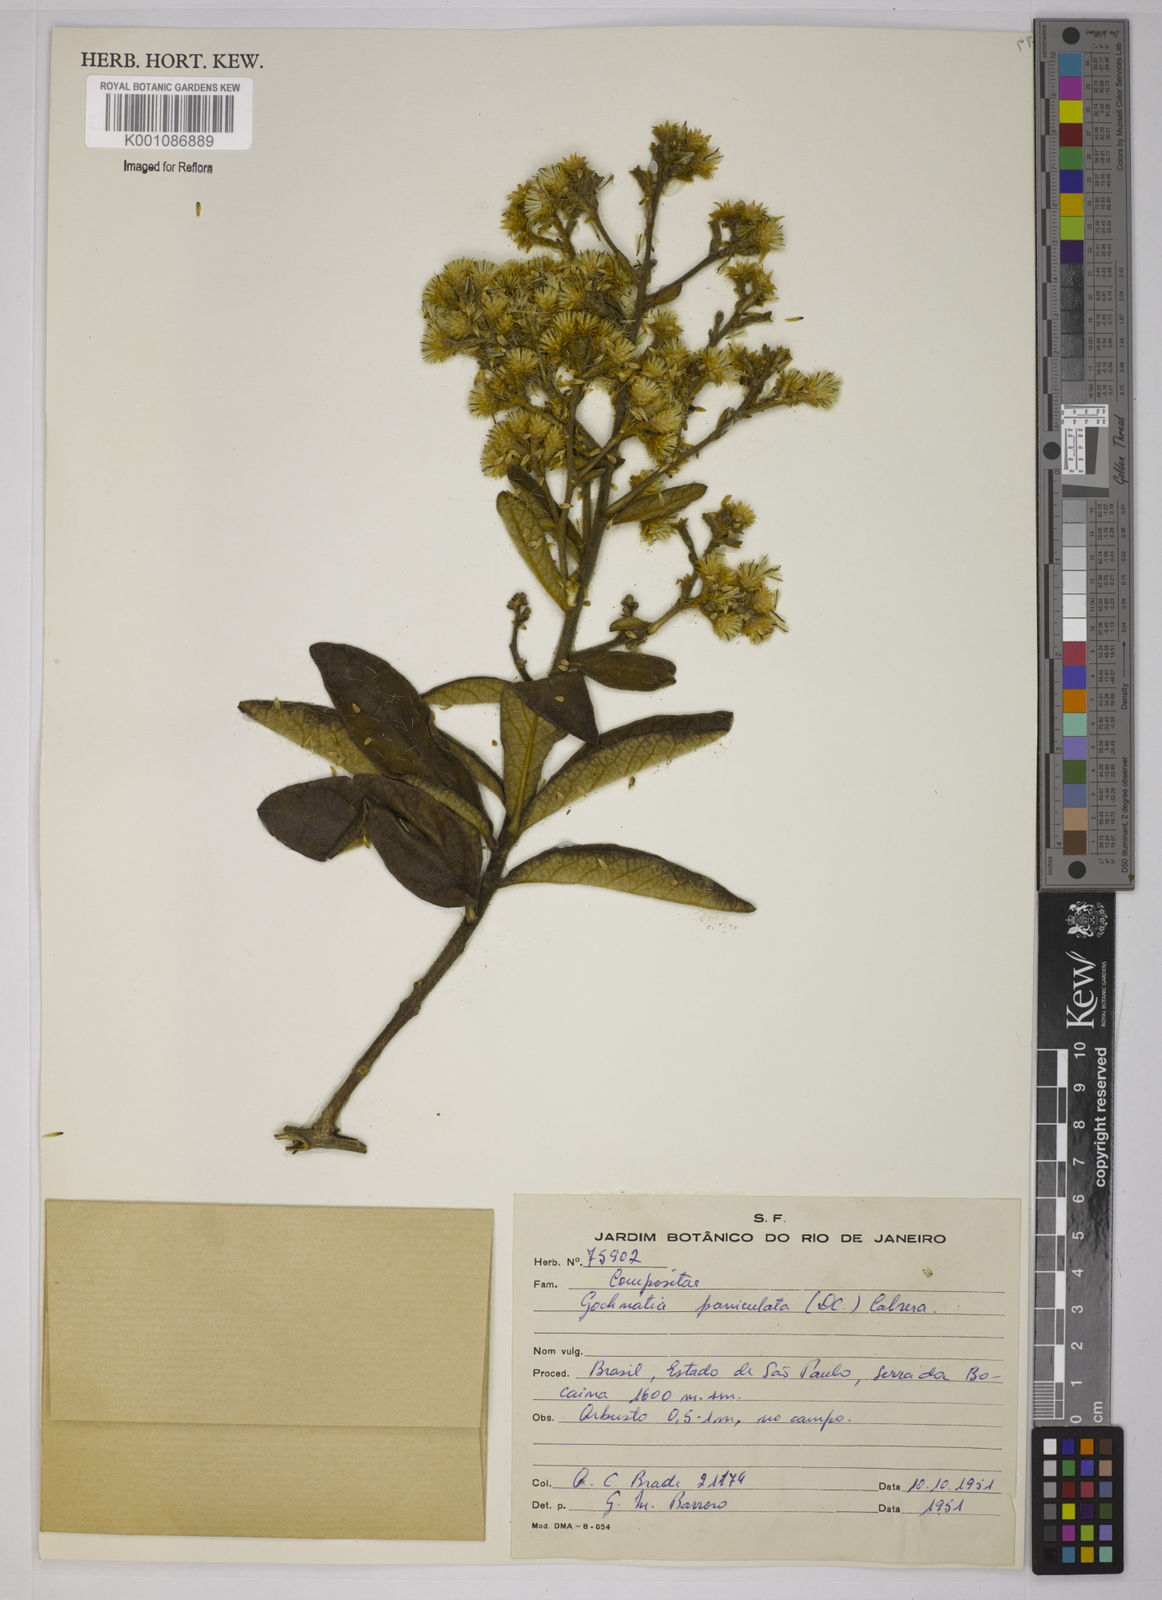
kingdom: Plantae
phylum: Tracheophyta
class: Magnoliopsida
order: Asterales
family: Asteraceae
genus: Moquiniastrum
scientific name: Moquiniastrum paniculatum
